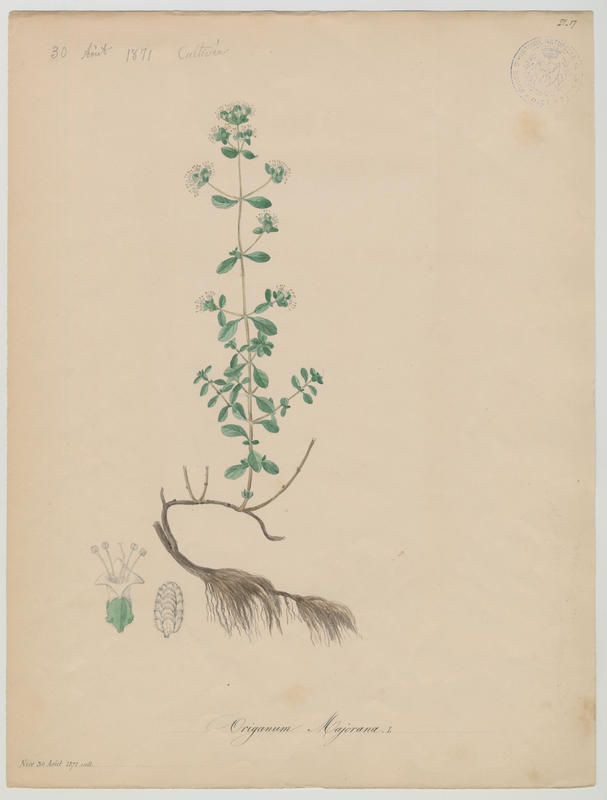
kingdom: Plantae
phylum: Tracheophyta
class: Magnoliopsida
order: Lamiales
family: Lamiaceae
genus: Origanum
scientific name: Origanum majorana
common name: Sweet marjoram
